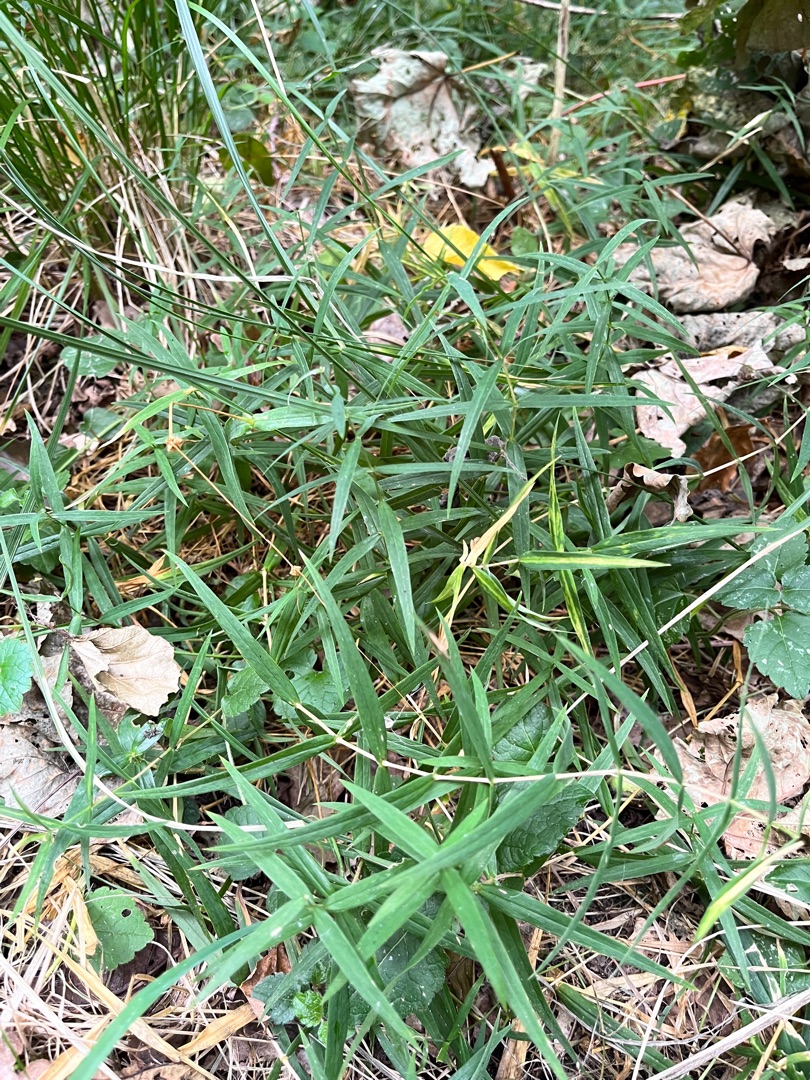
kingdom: Plantae
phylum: Tracheophyta
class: Magnoliopsida
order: Caryophyllales
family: Caryophyllaceae
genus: Rabelera
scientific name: Rabelera holostea
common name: Stor fladstjerne
